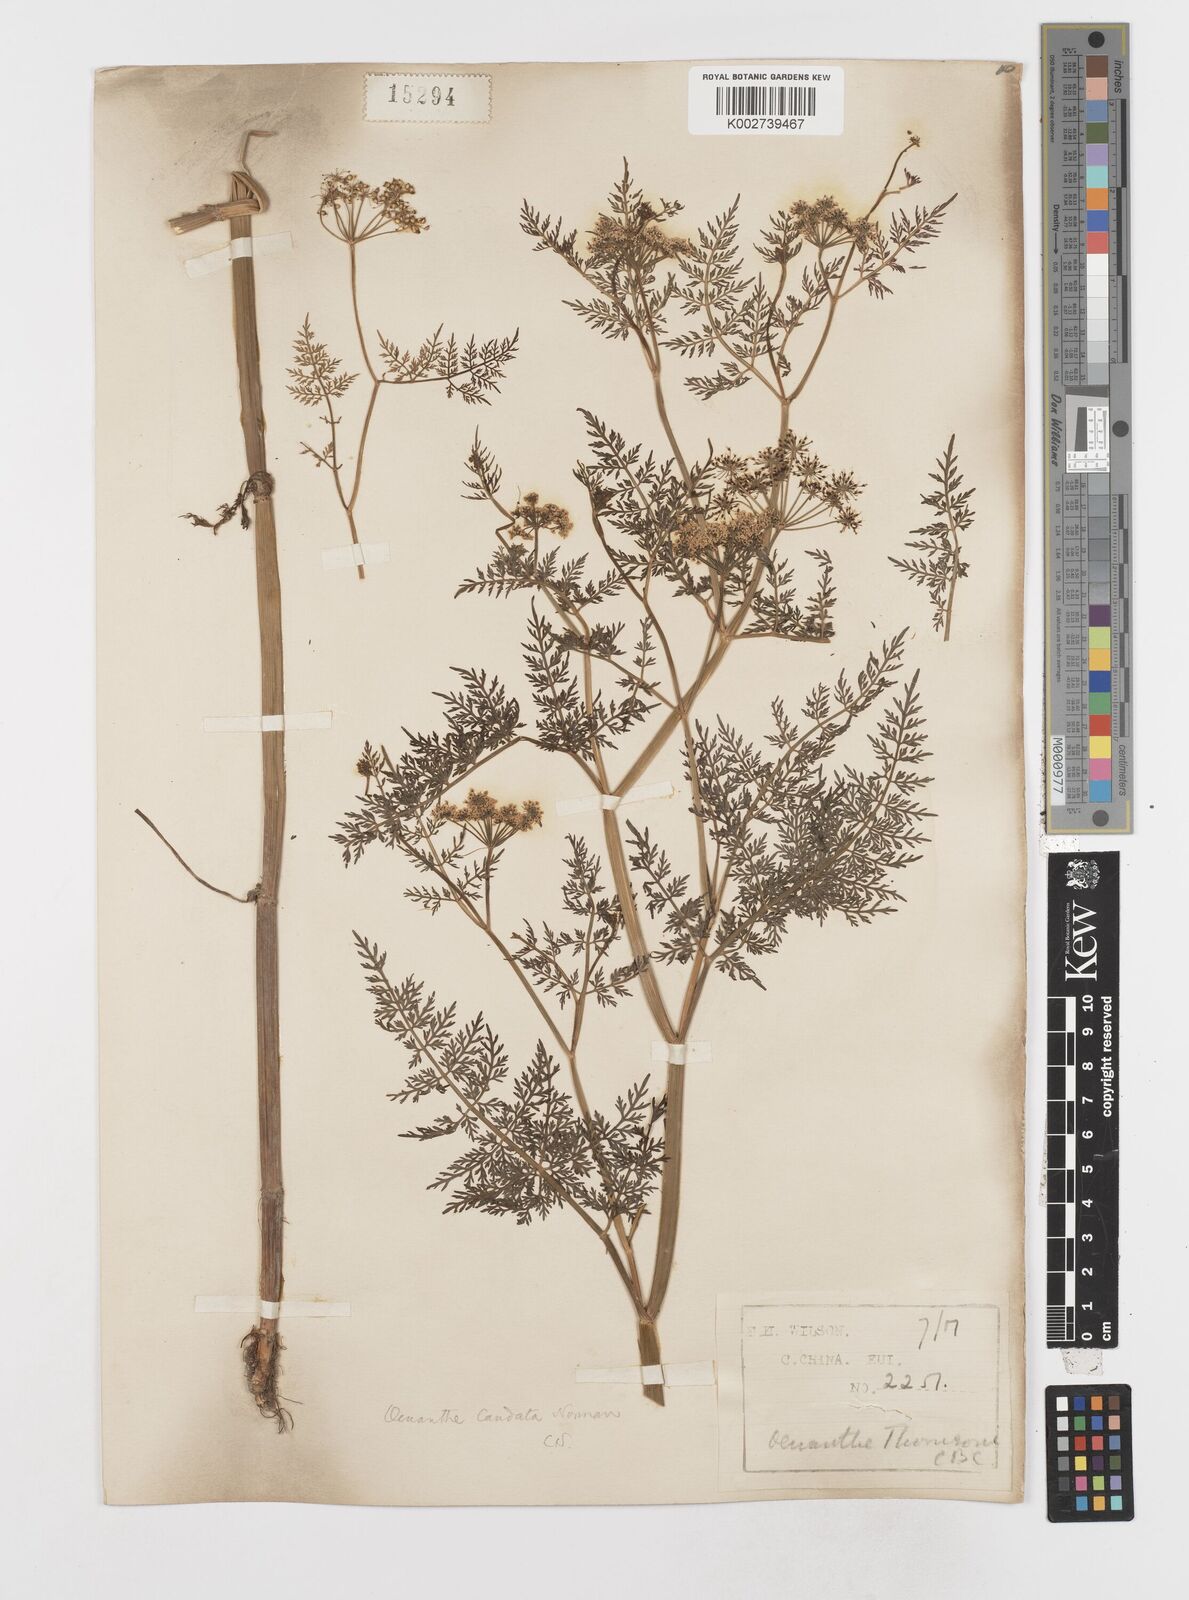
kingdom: Plantae
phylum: Tracheophyta
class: Magnoliopsida
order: Apiales
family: Apiaceae
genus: Oenanthe
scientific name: Oenanthe thomsonii
